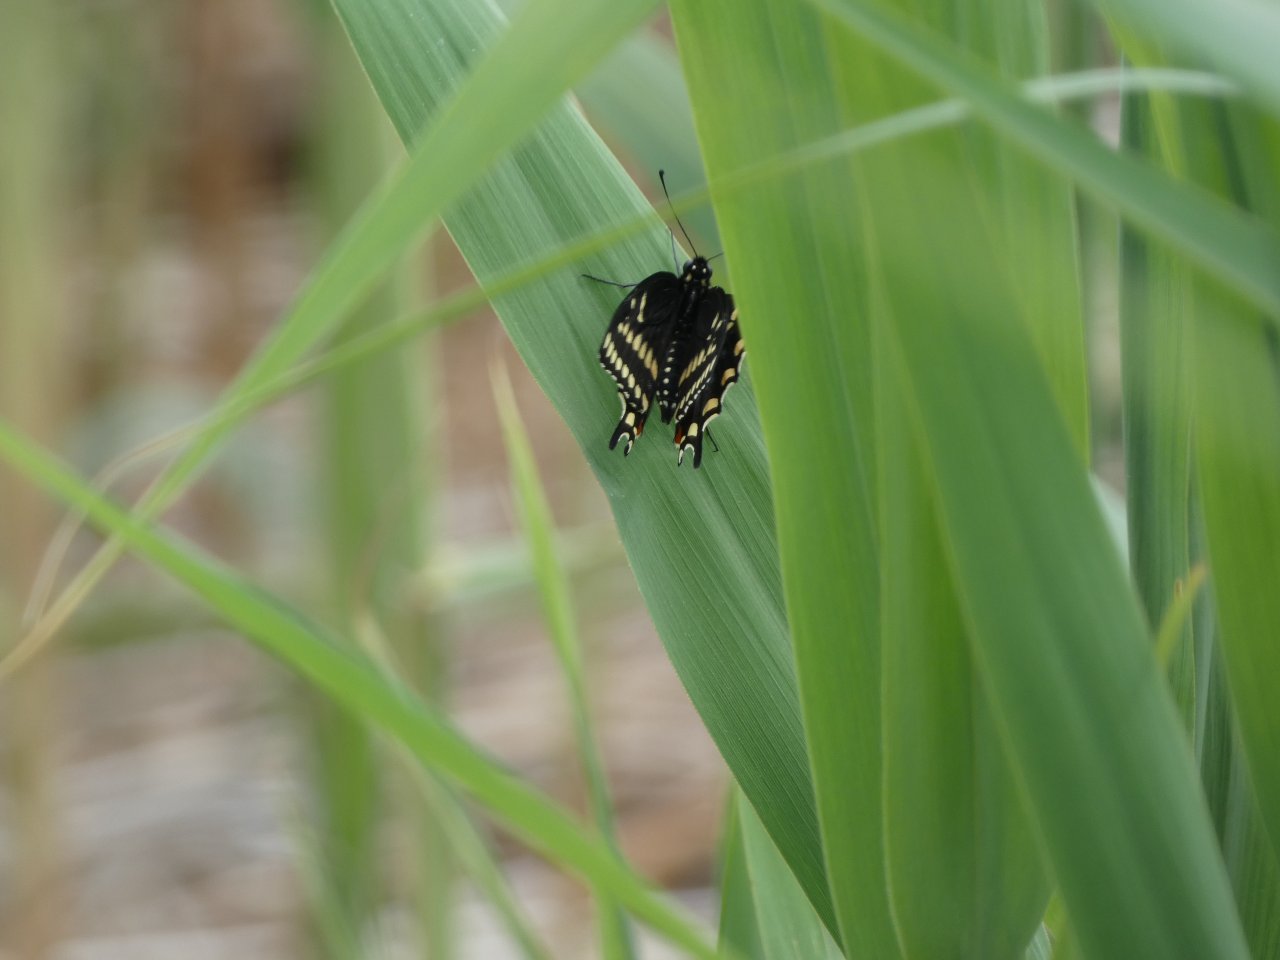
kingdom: Animalia
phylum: Arthropoda
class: Insecta
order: Lepidoptera
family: Papilionidae
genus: Papilio
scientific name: Papilio polyxenes
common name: Black Swallowtail
